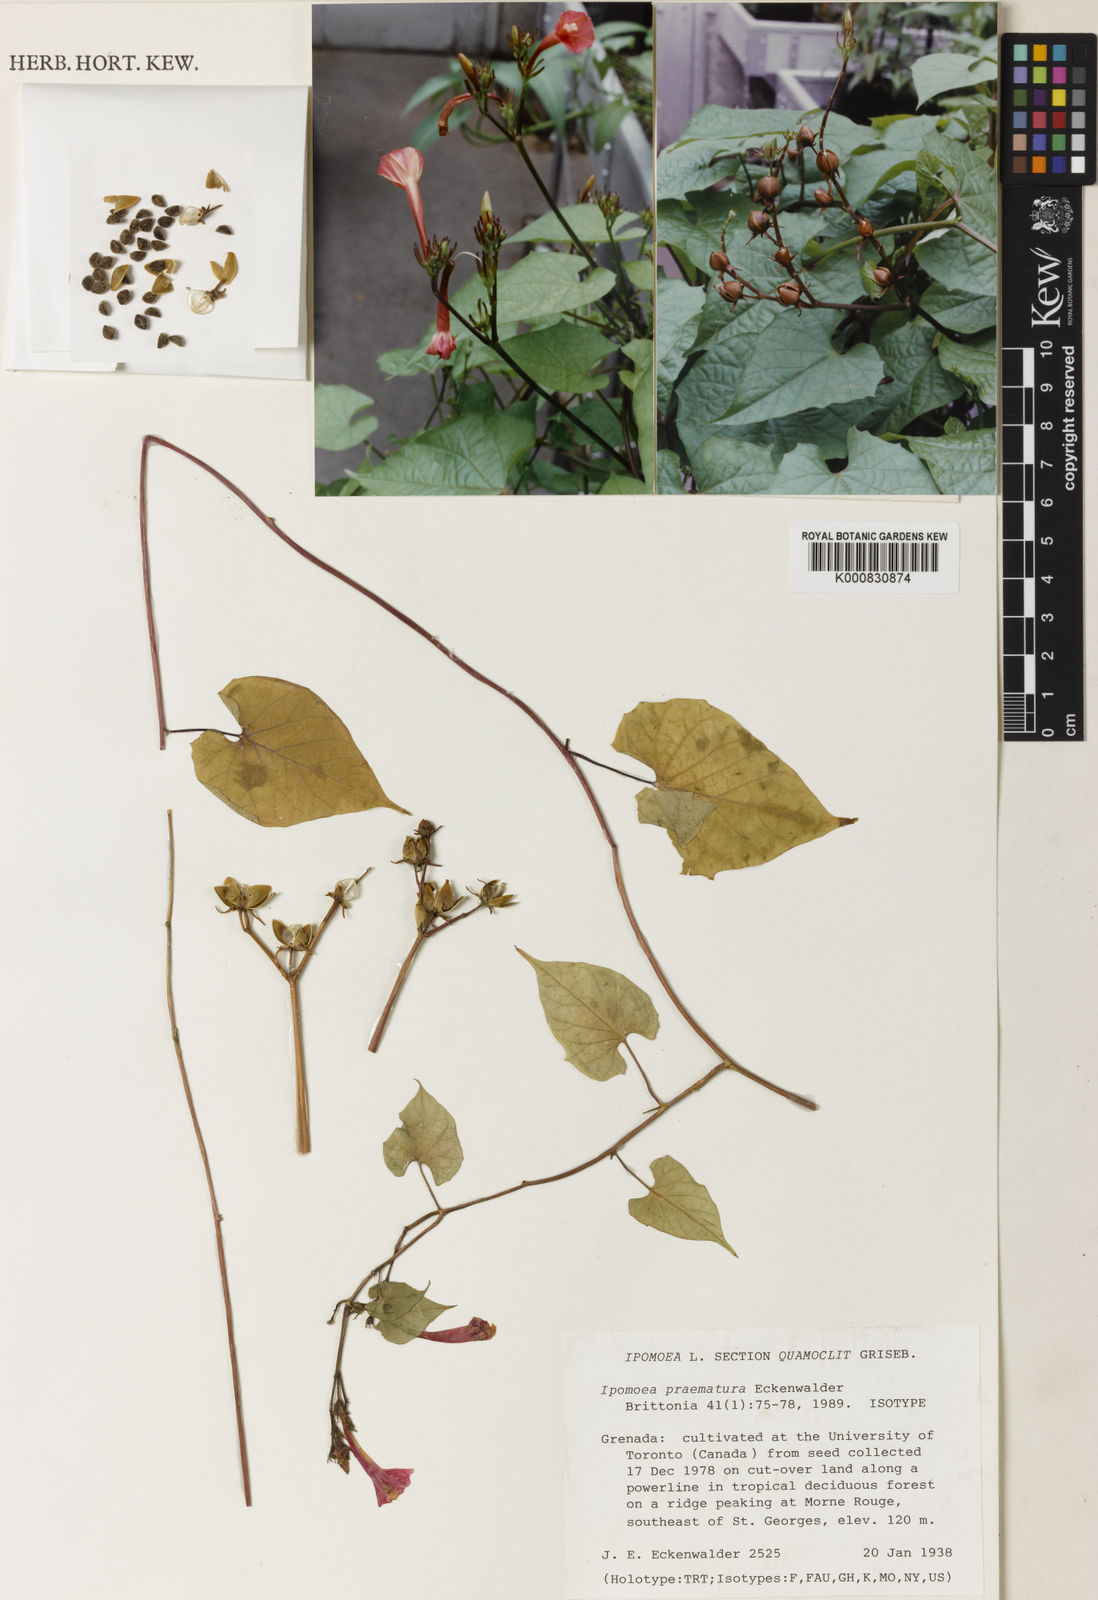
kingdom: Plantae
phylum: Tracheophyta
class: Magnoliopsida
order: Solanales
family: Convolvulaceae
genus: Ipomoea
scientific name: Ipomoea hederifolia
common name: Ivy-leaf morning-glory
